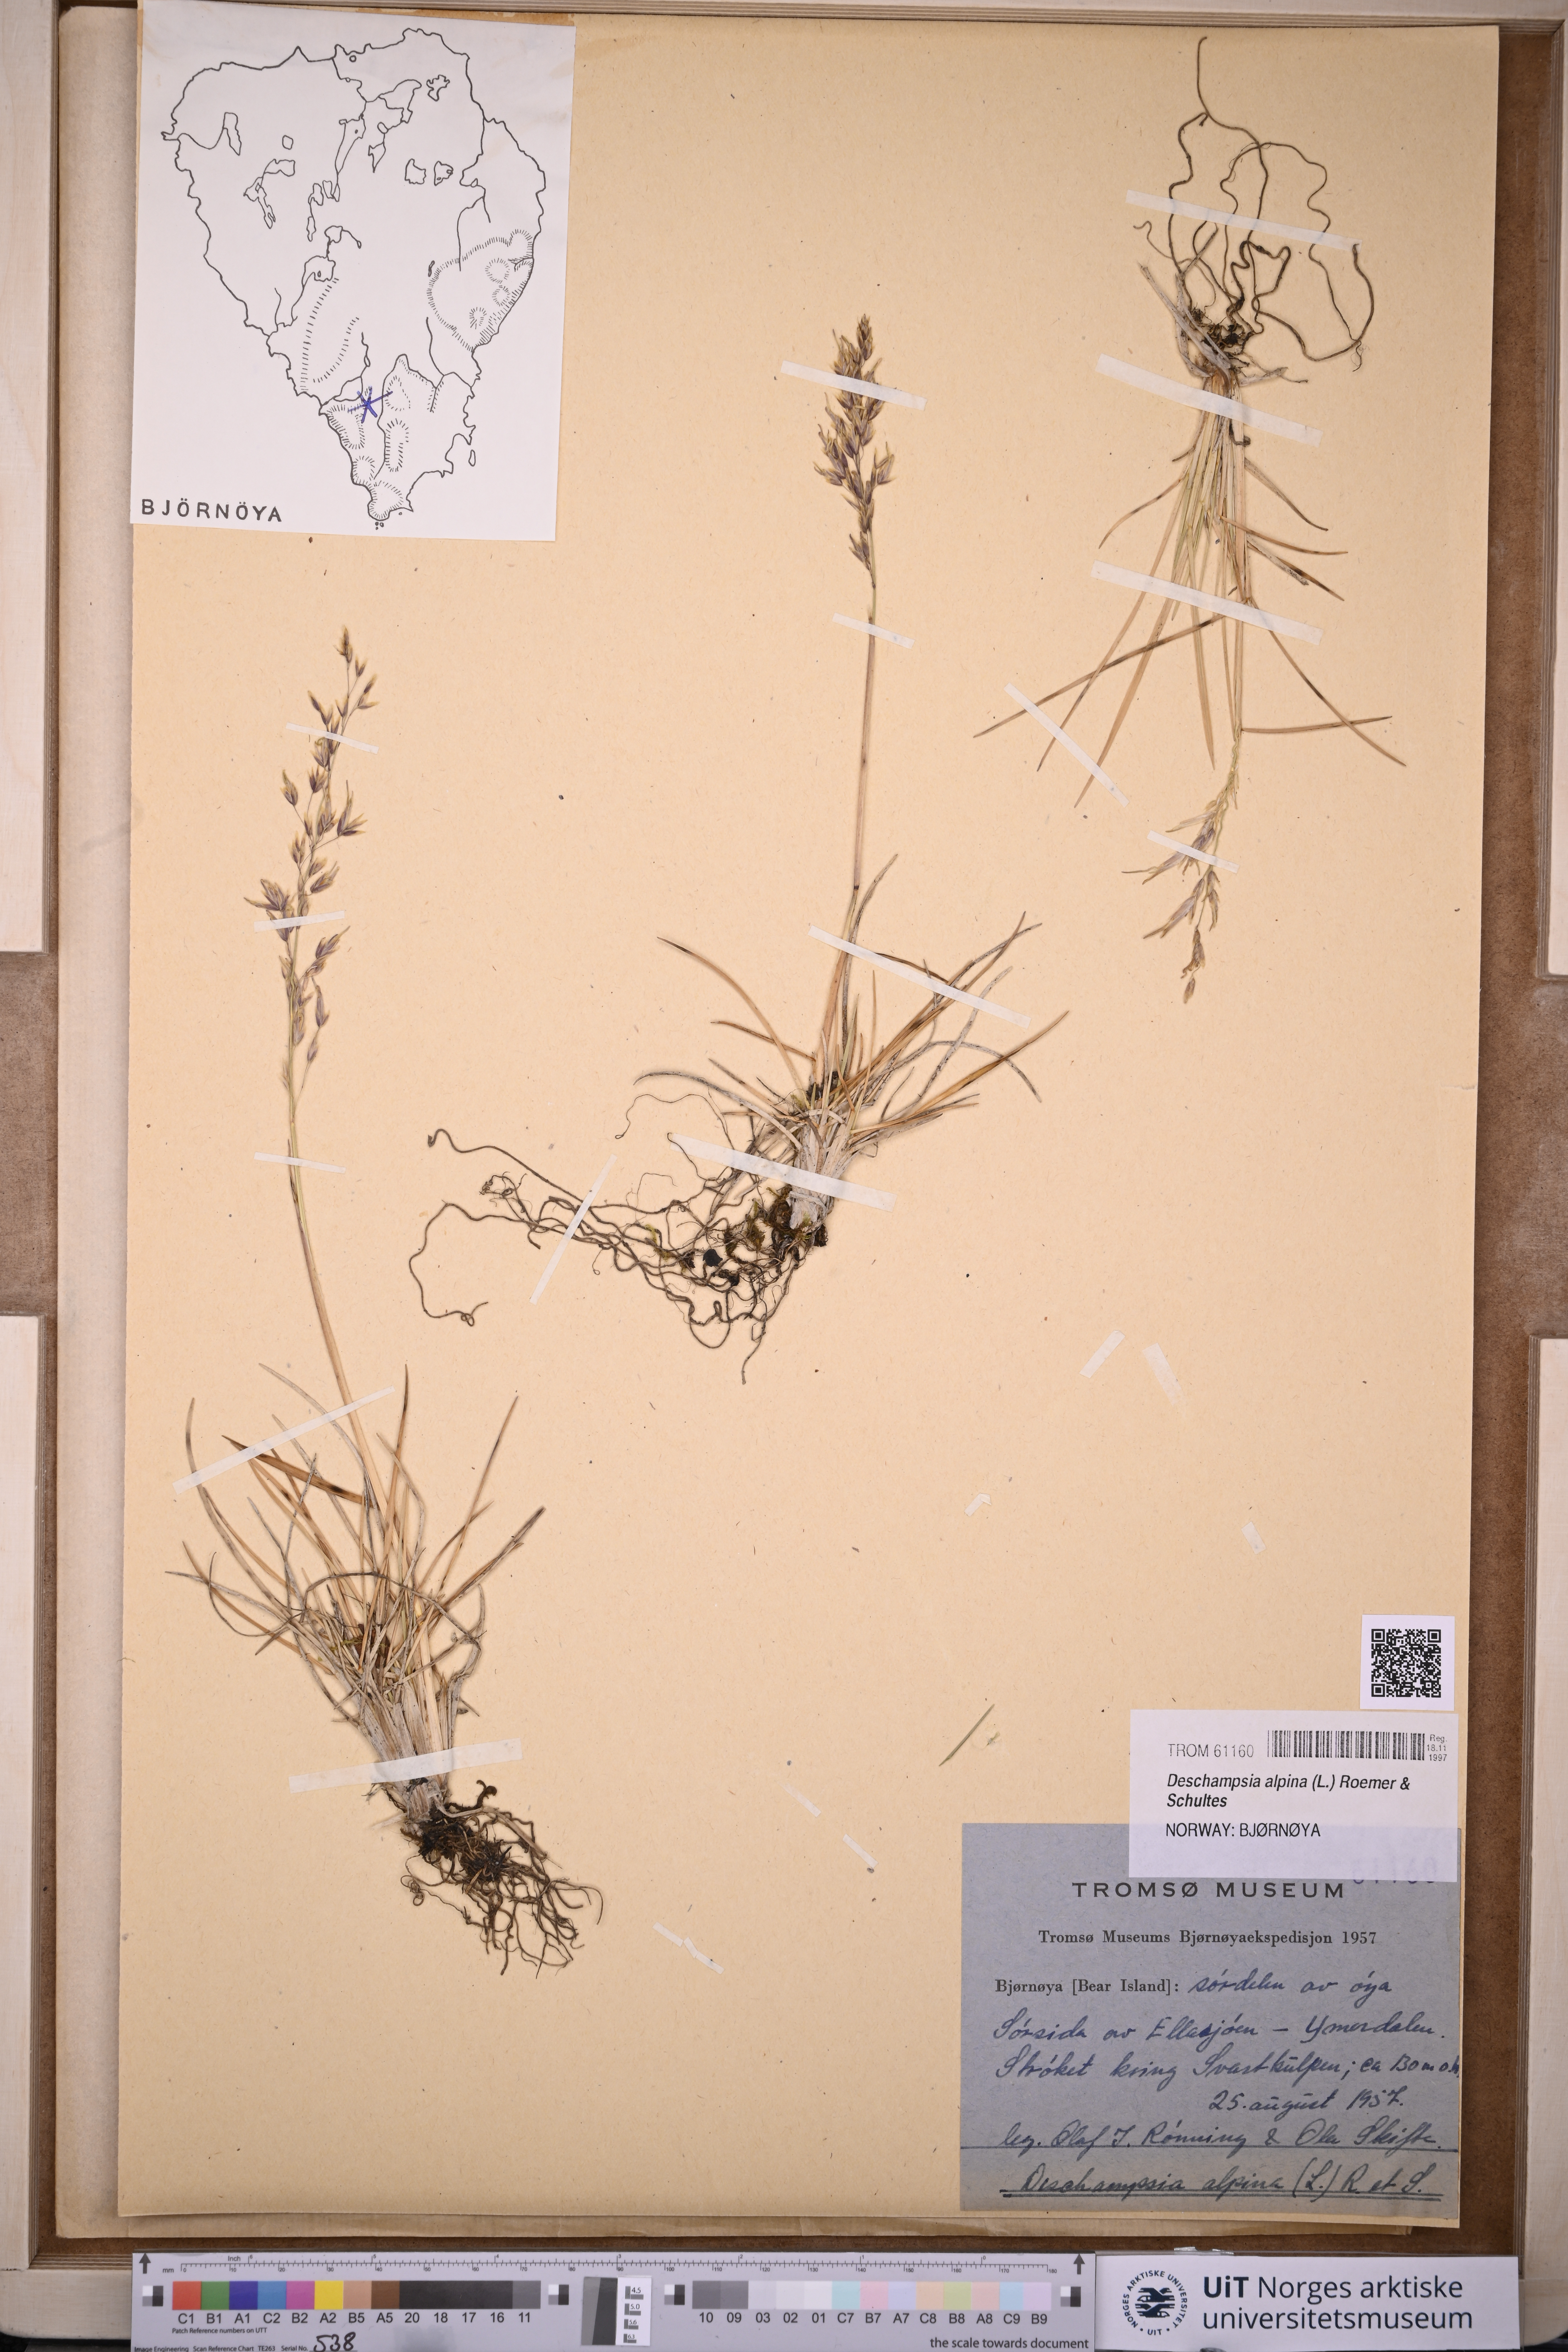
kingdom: Plantae
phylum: Tracheophyta
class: Liliopsida
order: Poales
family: Poaceae
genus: Deschampsia
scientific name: Deschampsia cespitosa
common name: Tufted hair-grass
